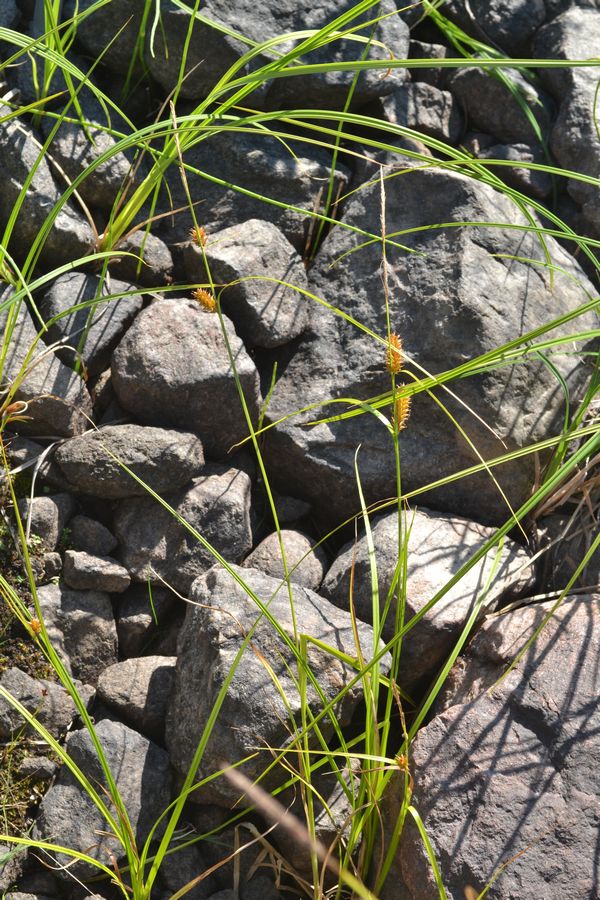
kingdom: Plantae
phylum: Tracheophyta
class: Liliopsida
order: Poales
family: Cyperaceae
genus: Carex
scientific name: Carex vesicaria
